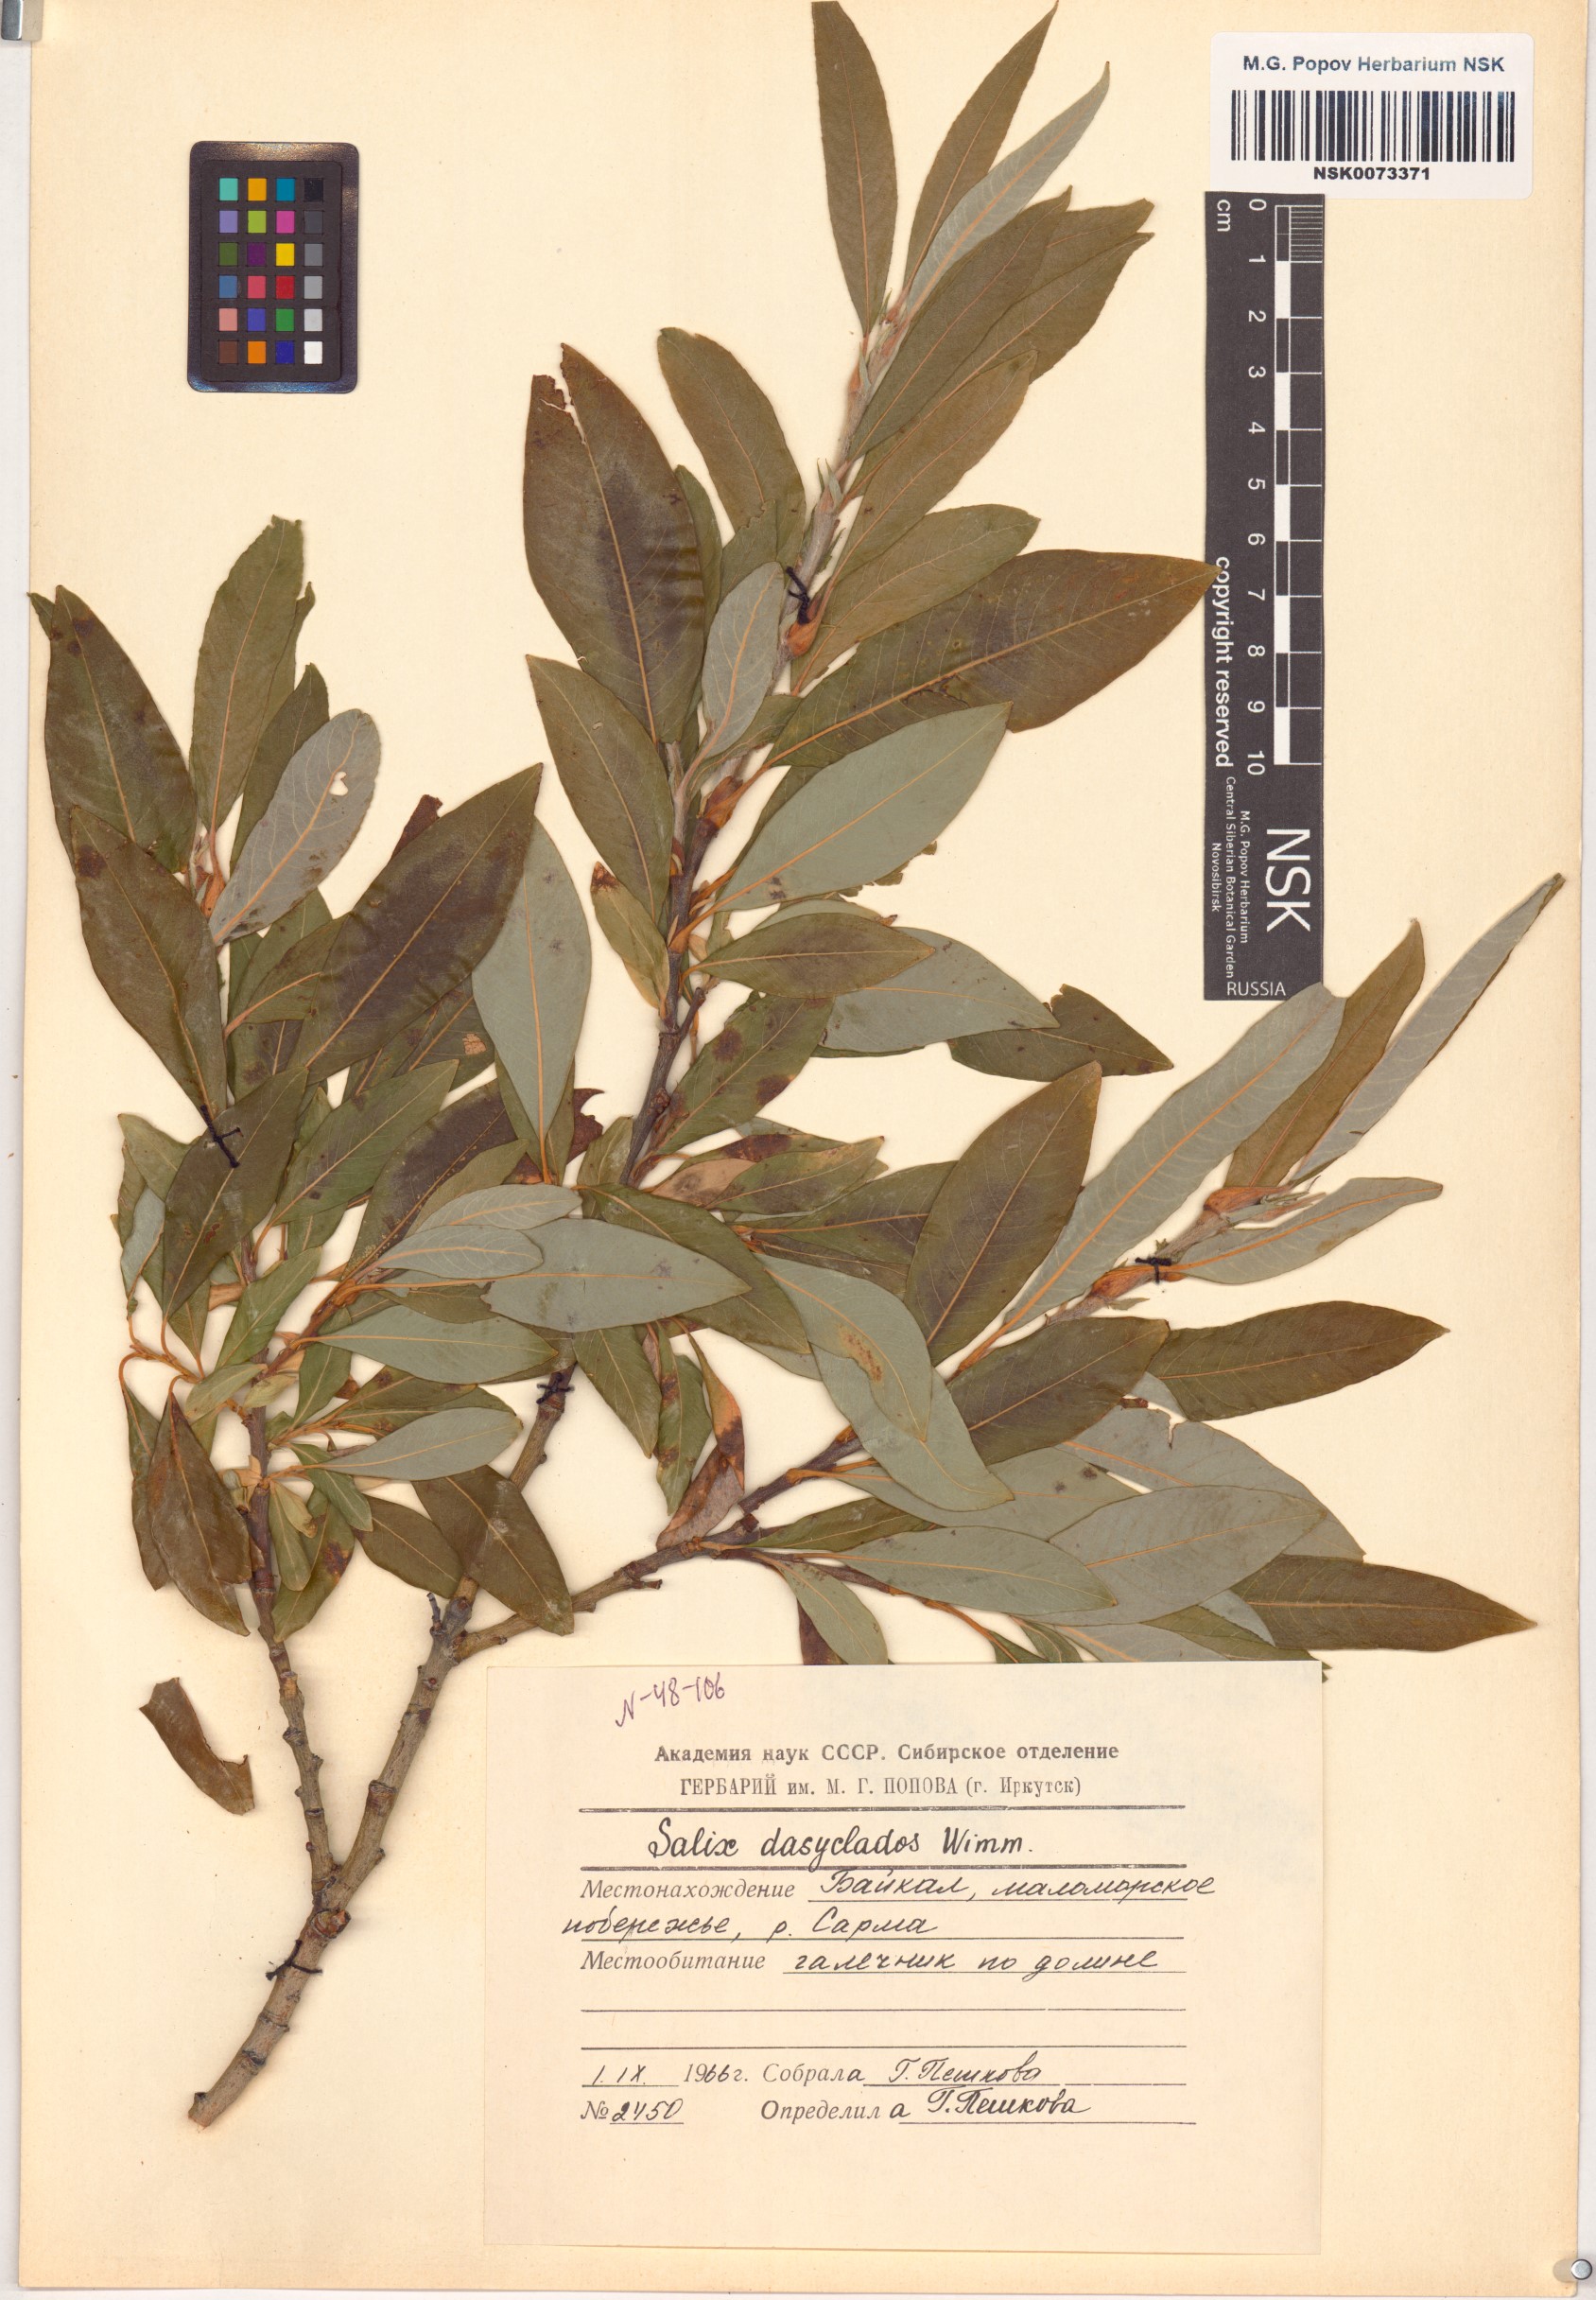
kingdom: Plantae
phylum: Tracheophyta
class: Magnoliopsida
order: Malpighiales
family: Salicaceae
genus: Salix
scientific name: Salix gmelinii
